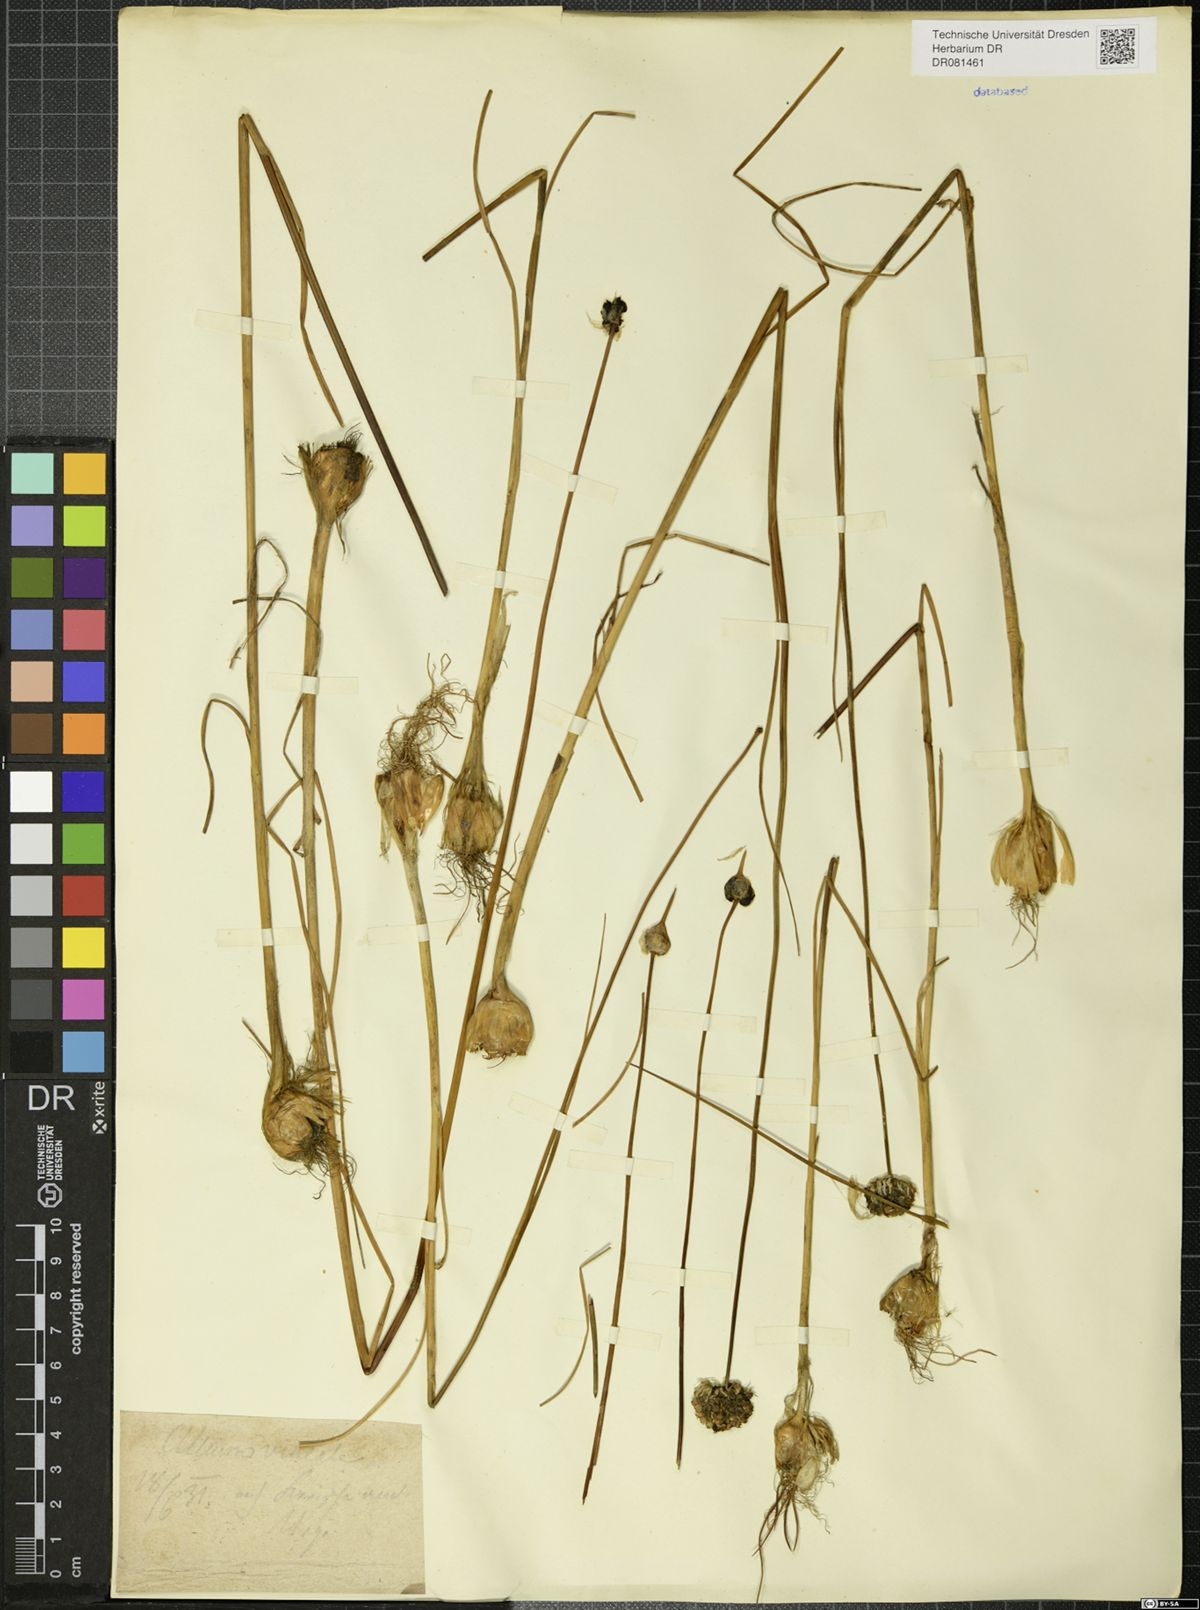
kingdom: Plantae
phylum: Tracheophyta
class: Liliopsida
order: Asparagales
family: Amaryllidaceae
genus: Allium
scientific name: Allium vineale
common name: Crow garlic
